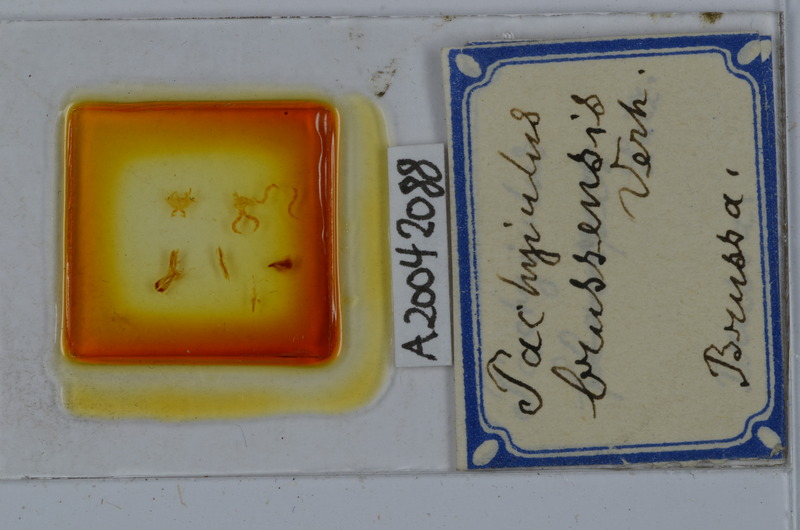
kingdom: Animalia
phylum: Arthropoda
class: Diplopoda
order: Julida
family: Julidae
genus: Pachyiulus
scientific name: Pachyiulus brussensis
